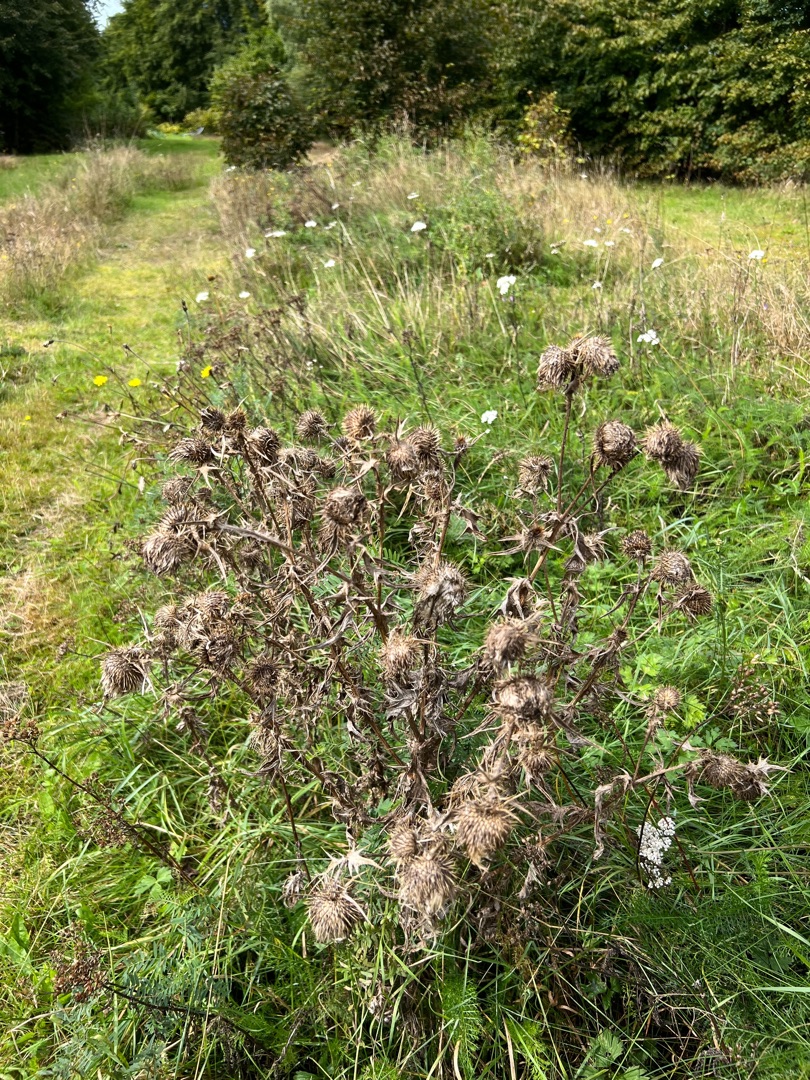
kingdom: Plantae
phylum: Tracheophyta
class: Magnoliopsida
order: Asterales
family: Asteraceae
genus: Cirsium
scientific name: Cirsium vulgare
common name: Horse-tidsel
